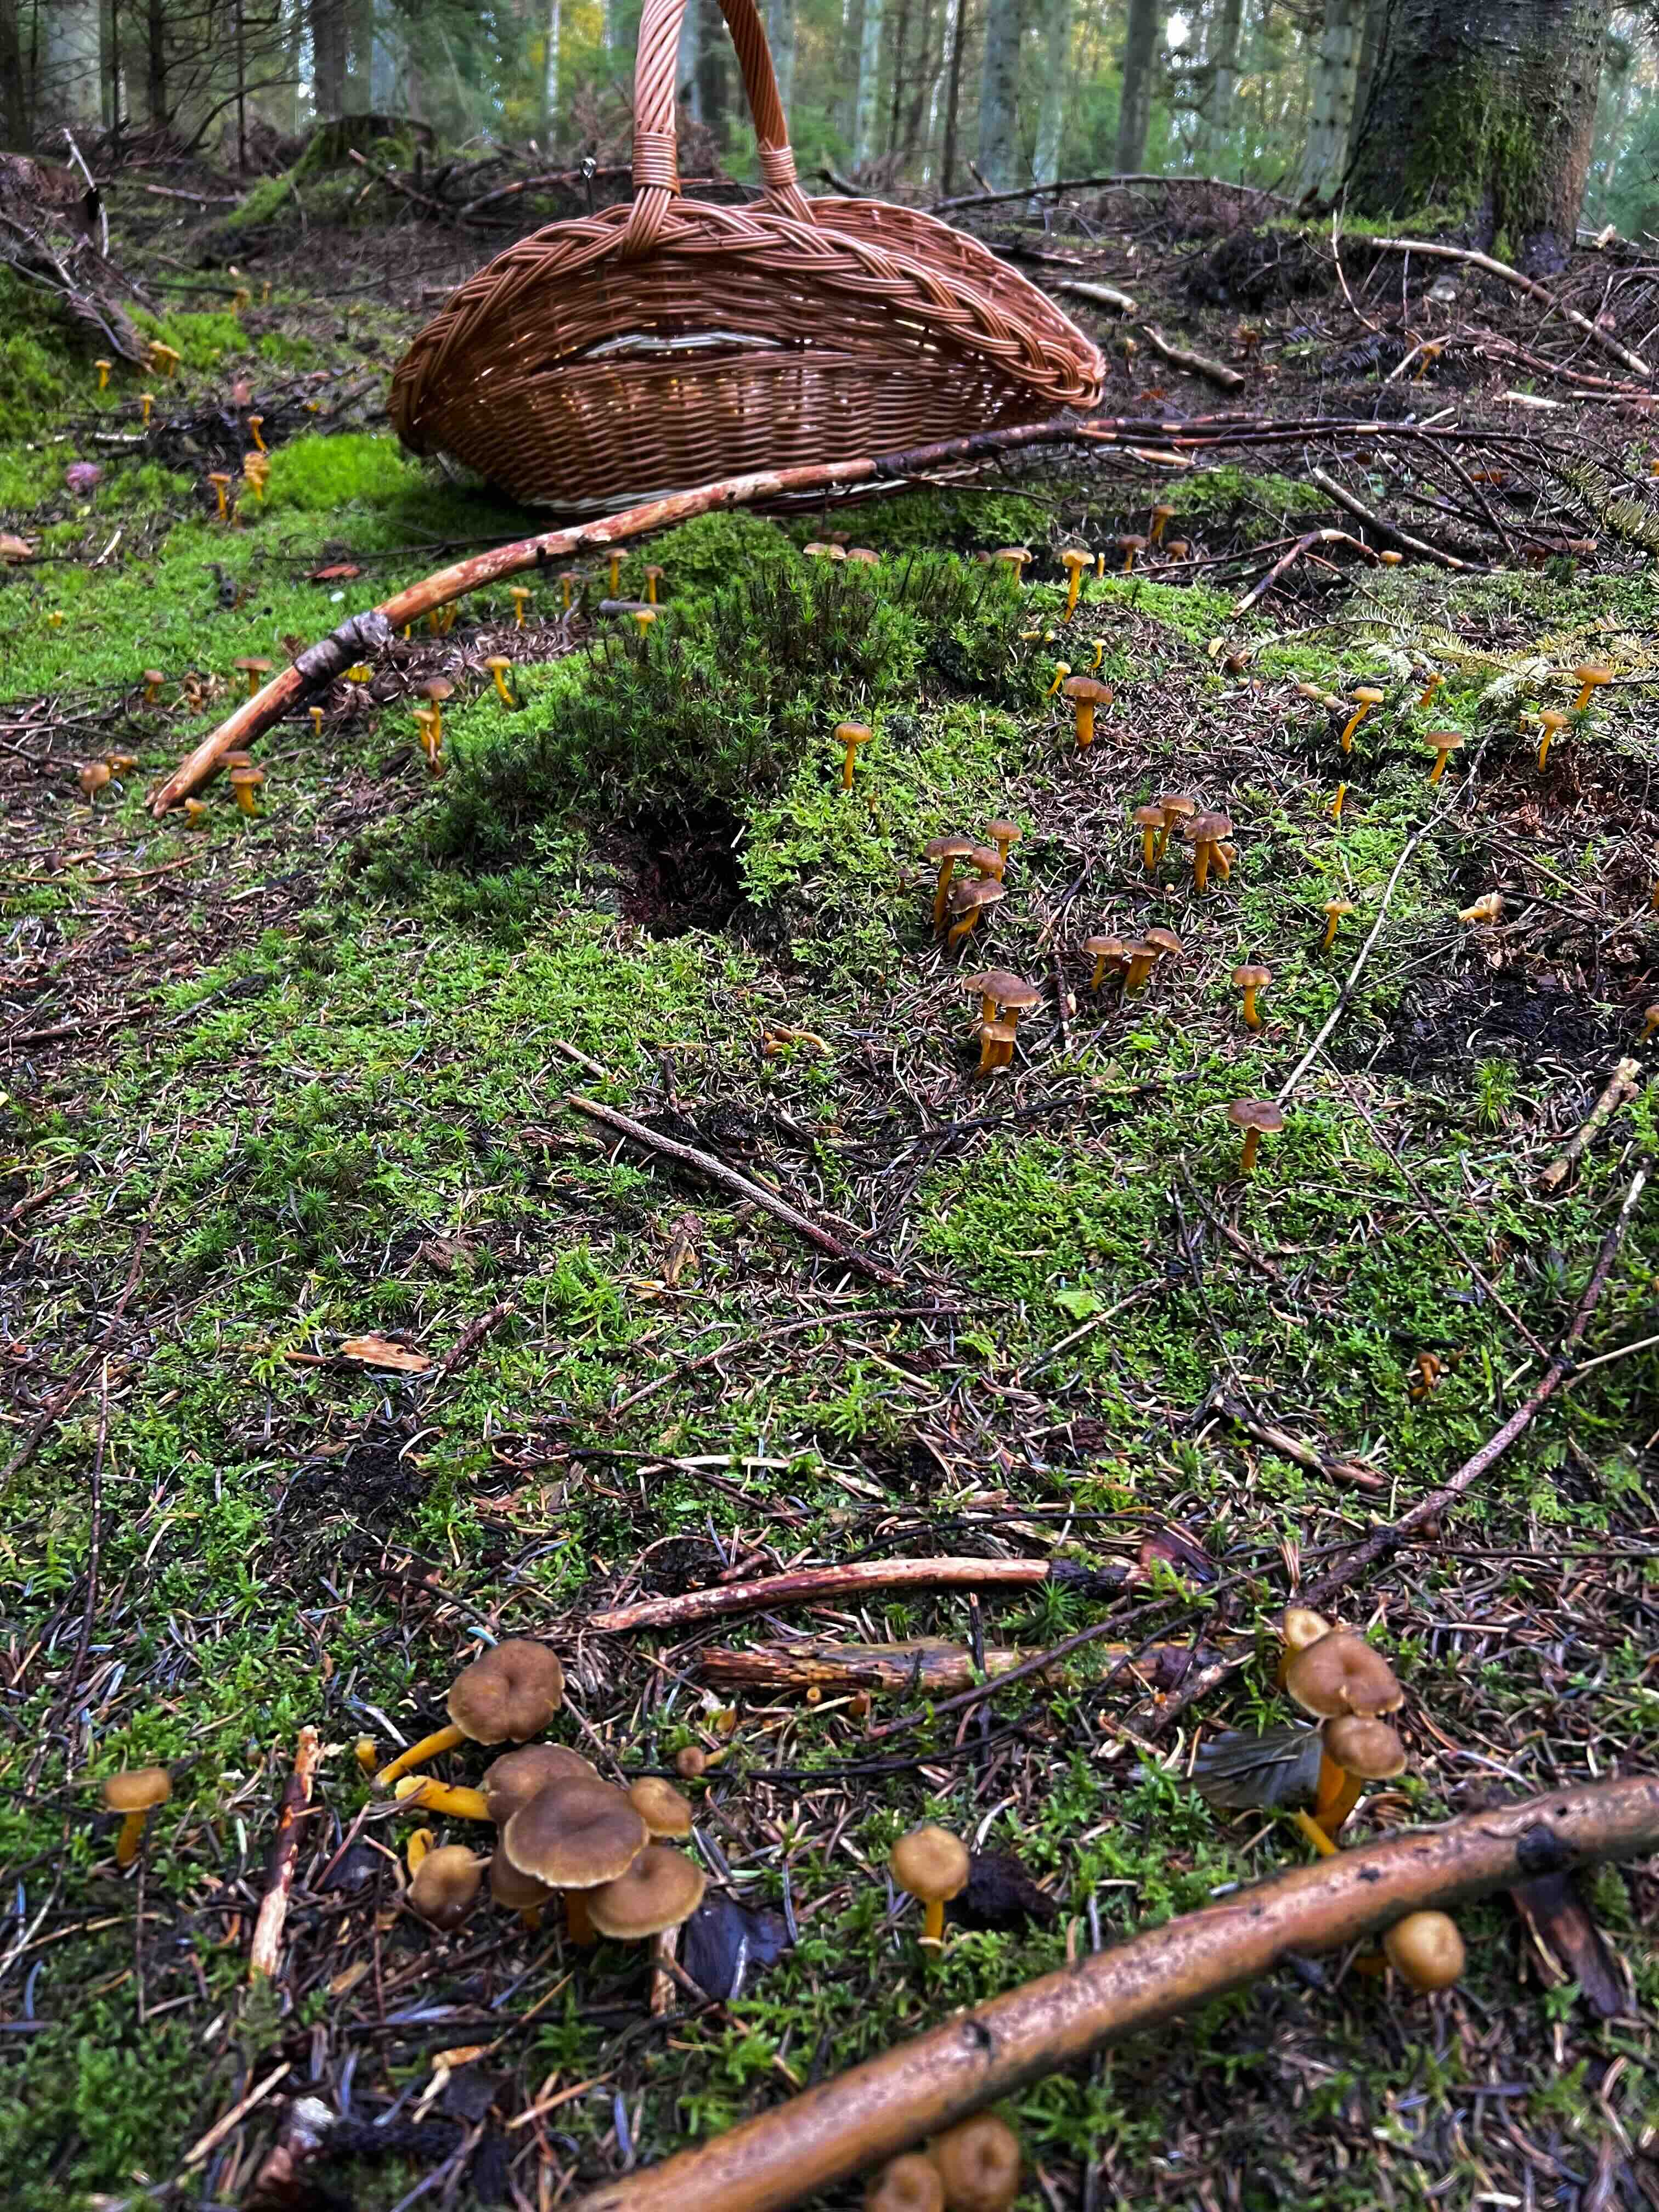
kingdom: Fungi
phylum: Basidiomycota
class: Agaricomycetes
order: Cantharellales
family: Hydnaceae
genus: Craterellus
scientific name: Craterellus tubaeformis
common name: tragt-kantarel
